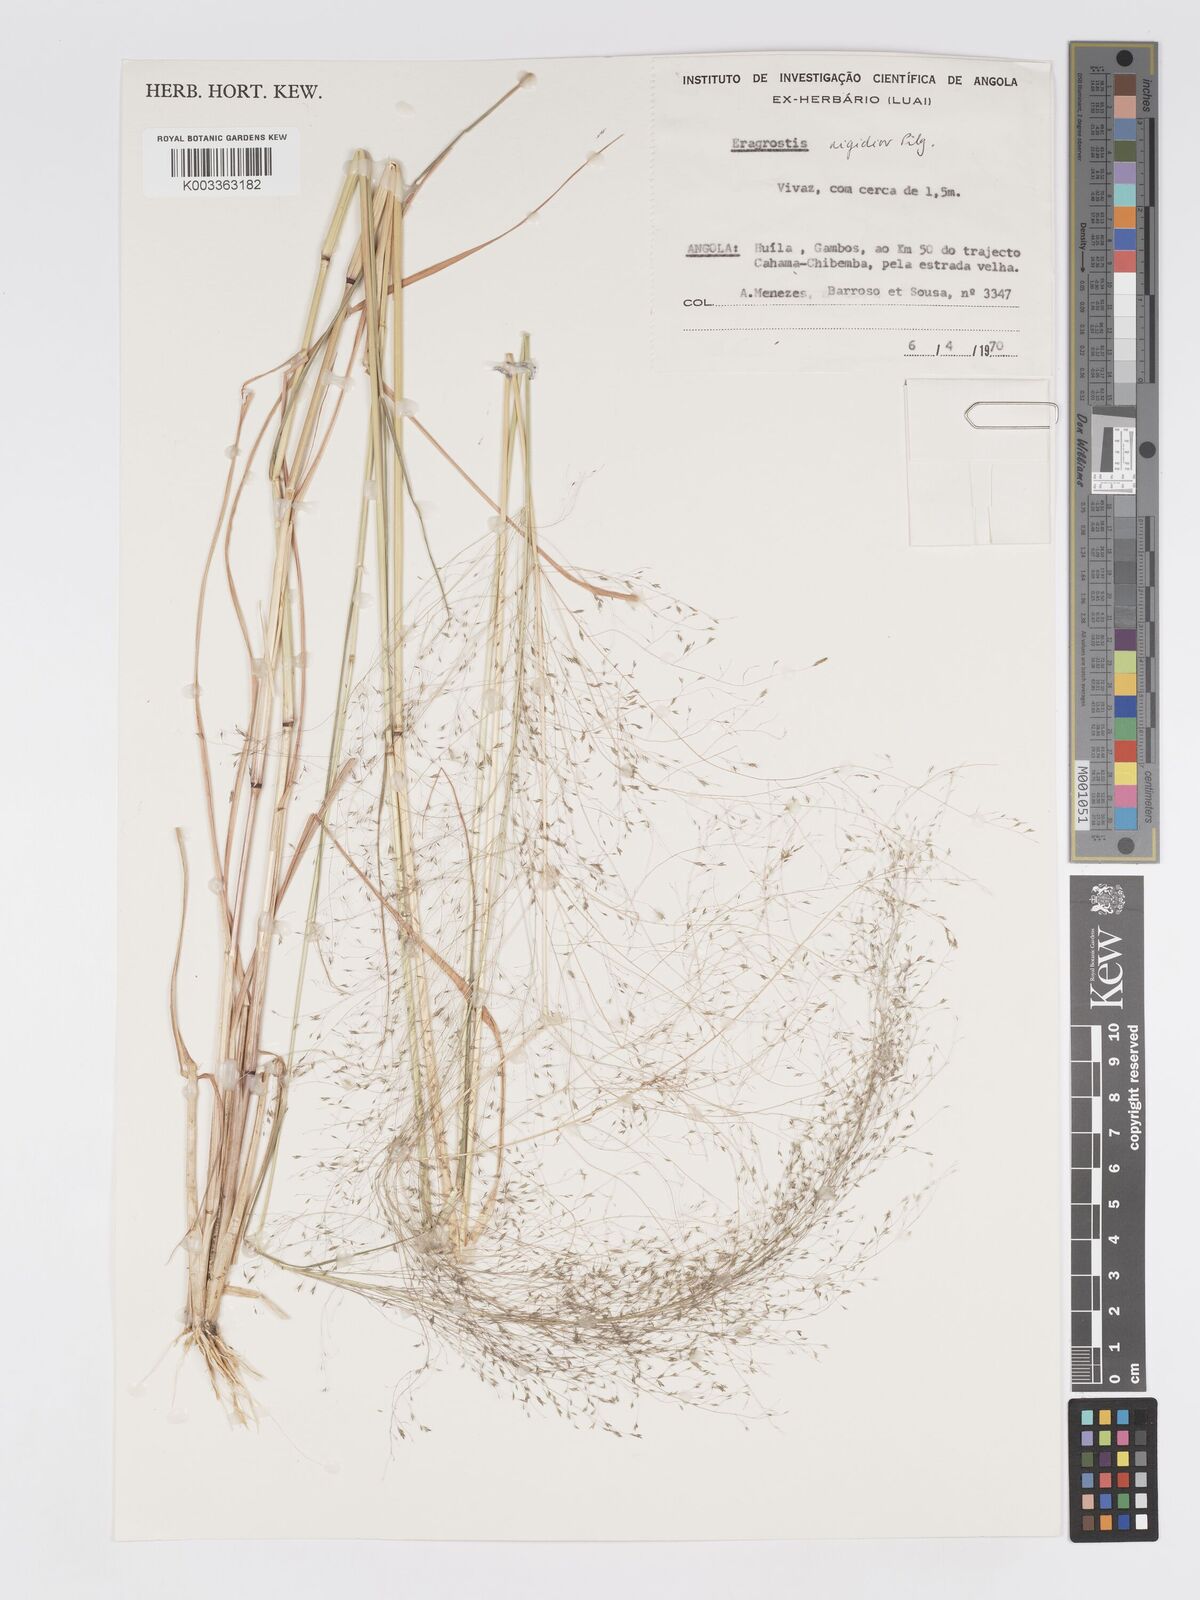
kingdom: Plantae
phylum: Tracheophyta
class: Liliopsida
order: Poales
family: Poaceae
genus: Eragrostis
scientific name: Eragrostis cylindriflora
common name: Cylinderflower lovegrass
